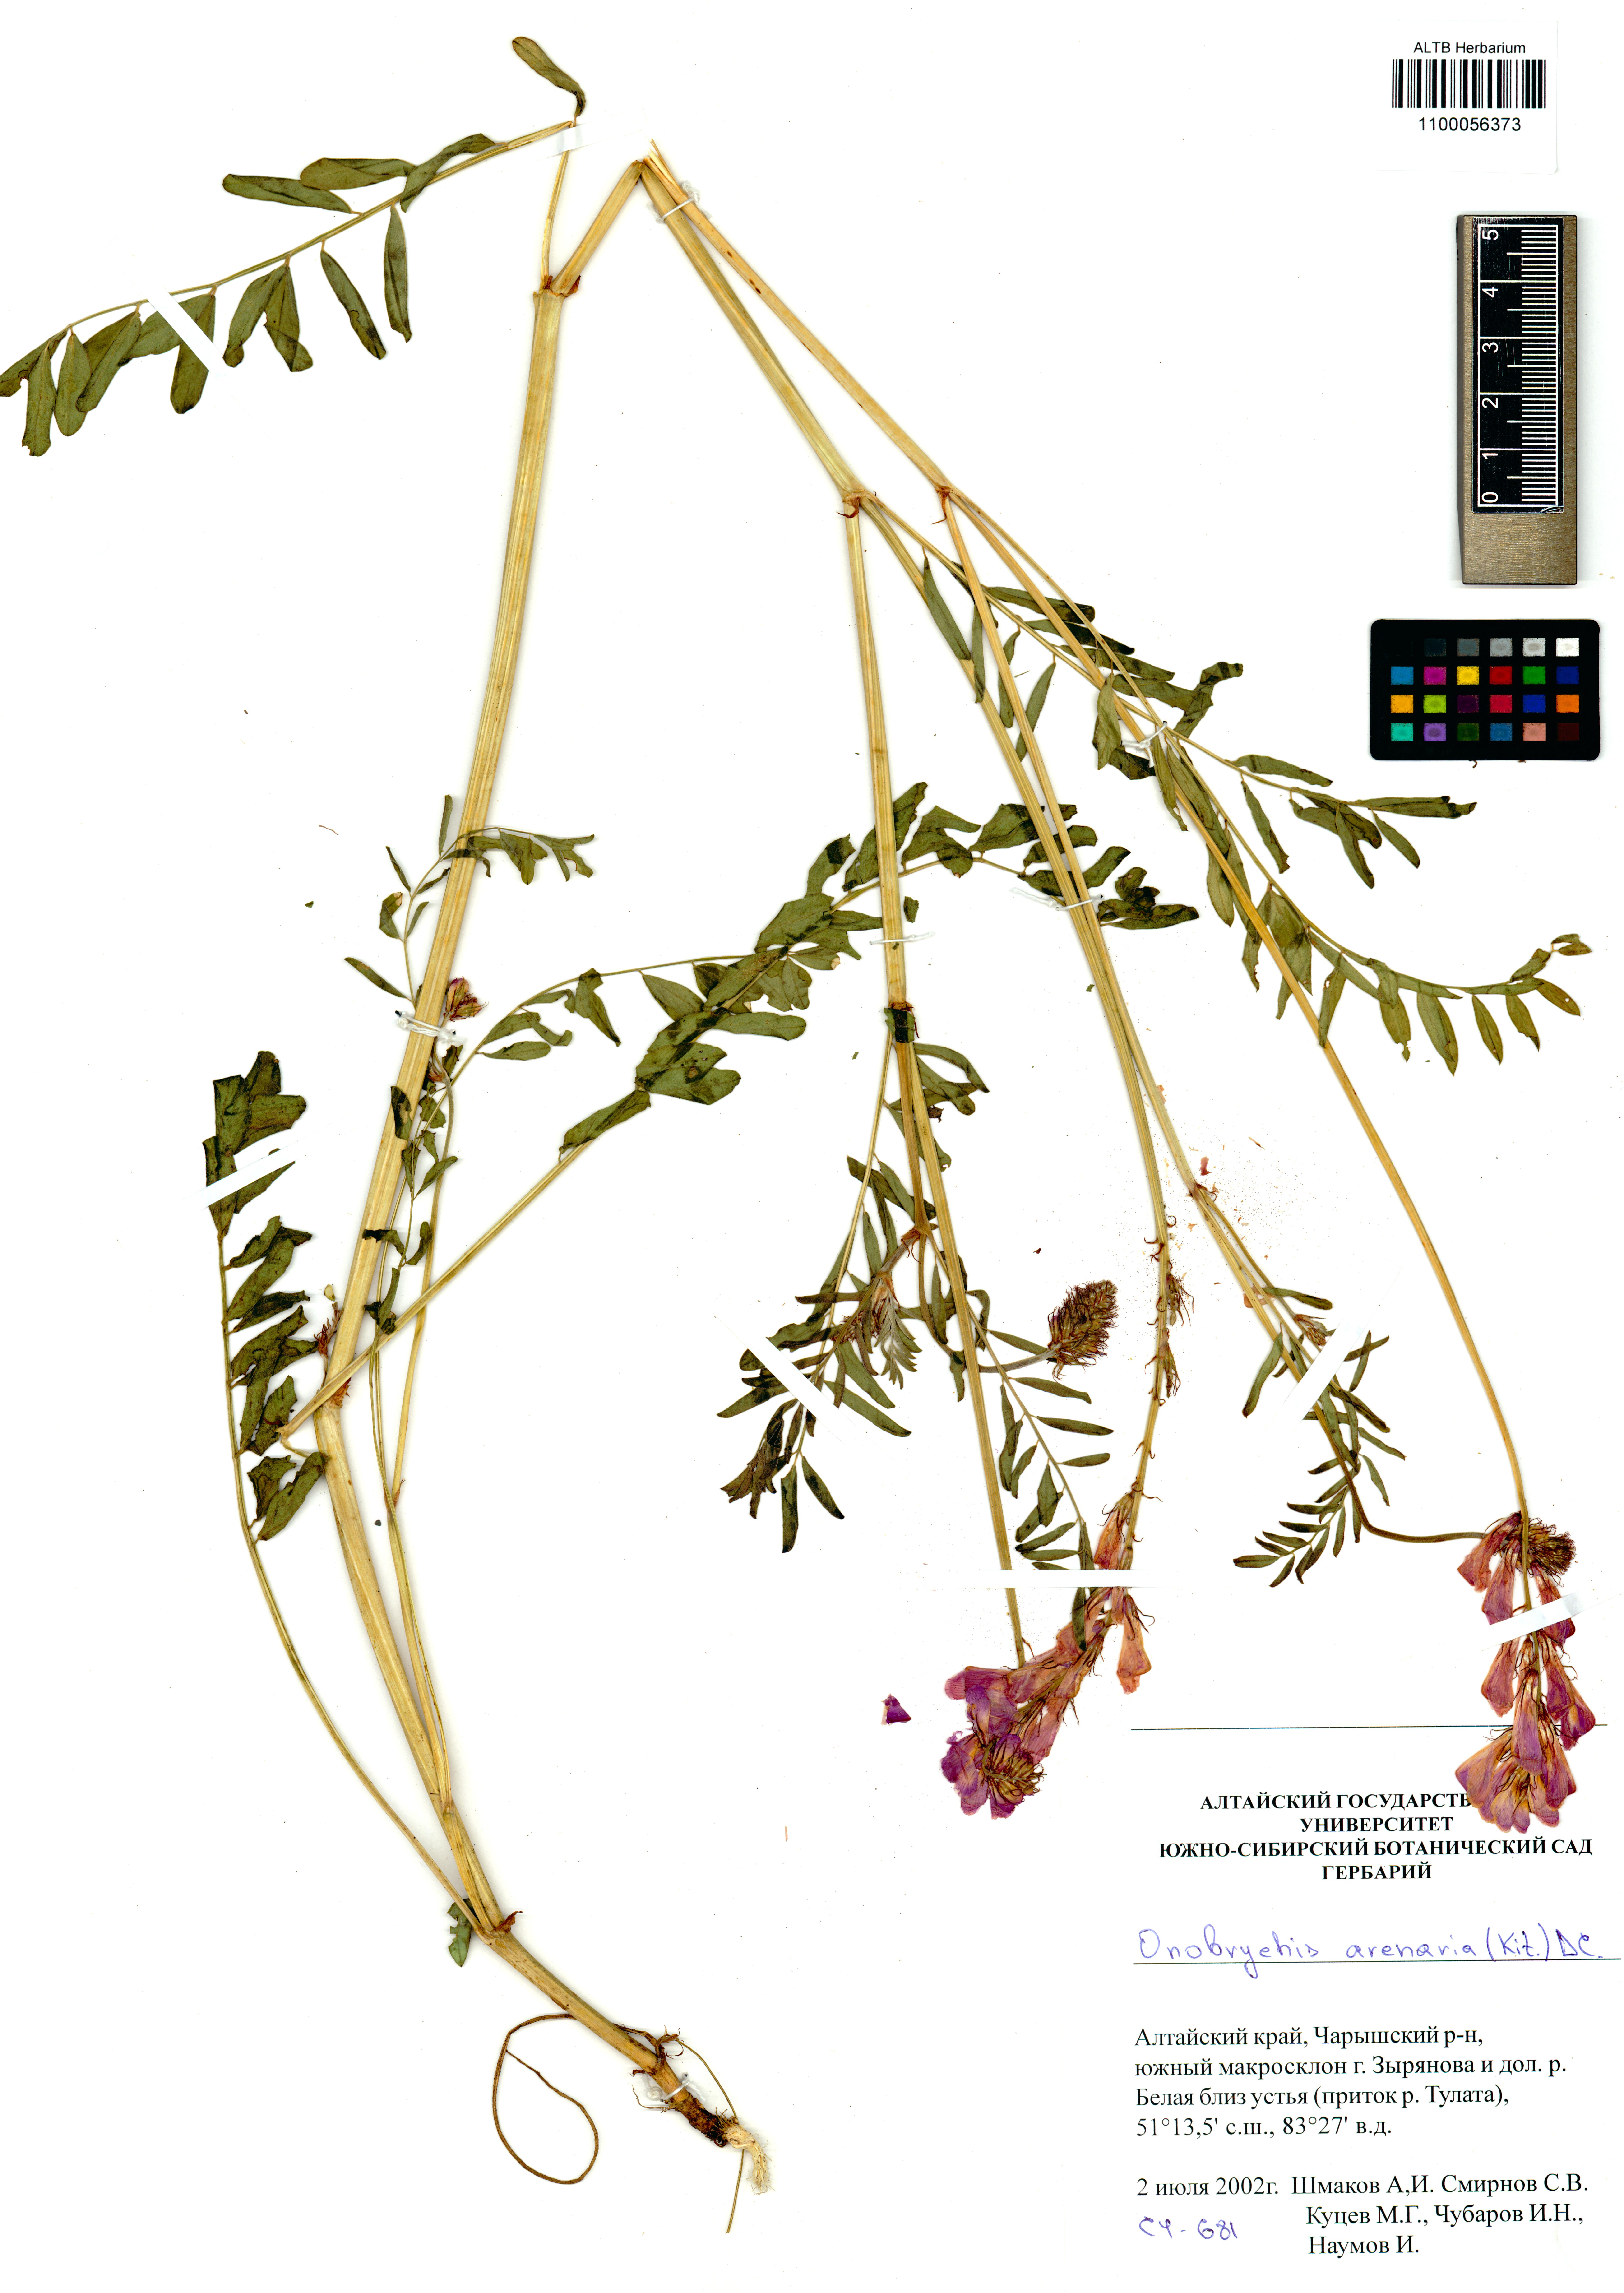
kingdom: Plantae
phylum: Tracheophyta
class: Magnoliopsida
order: Fabales
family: Fabaceae
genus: Onobrychis
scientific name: Onobrychis arenaria
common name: Sand esparcet
